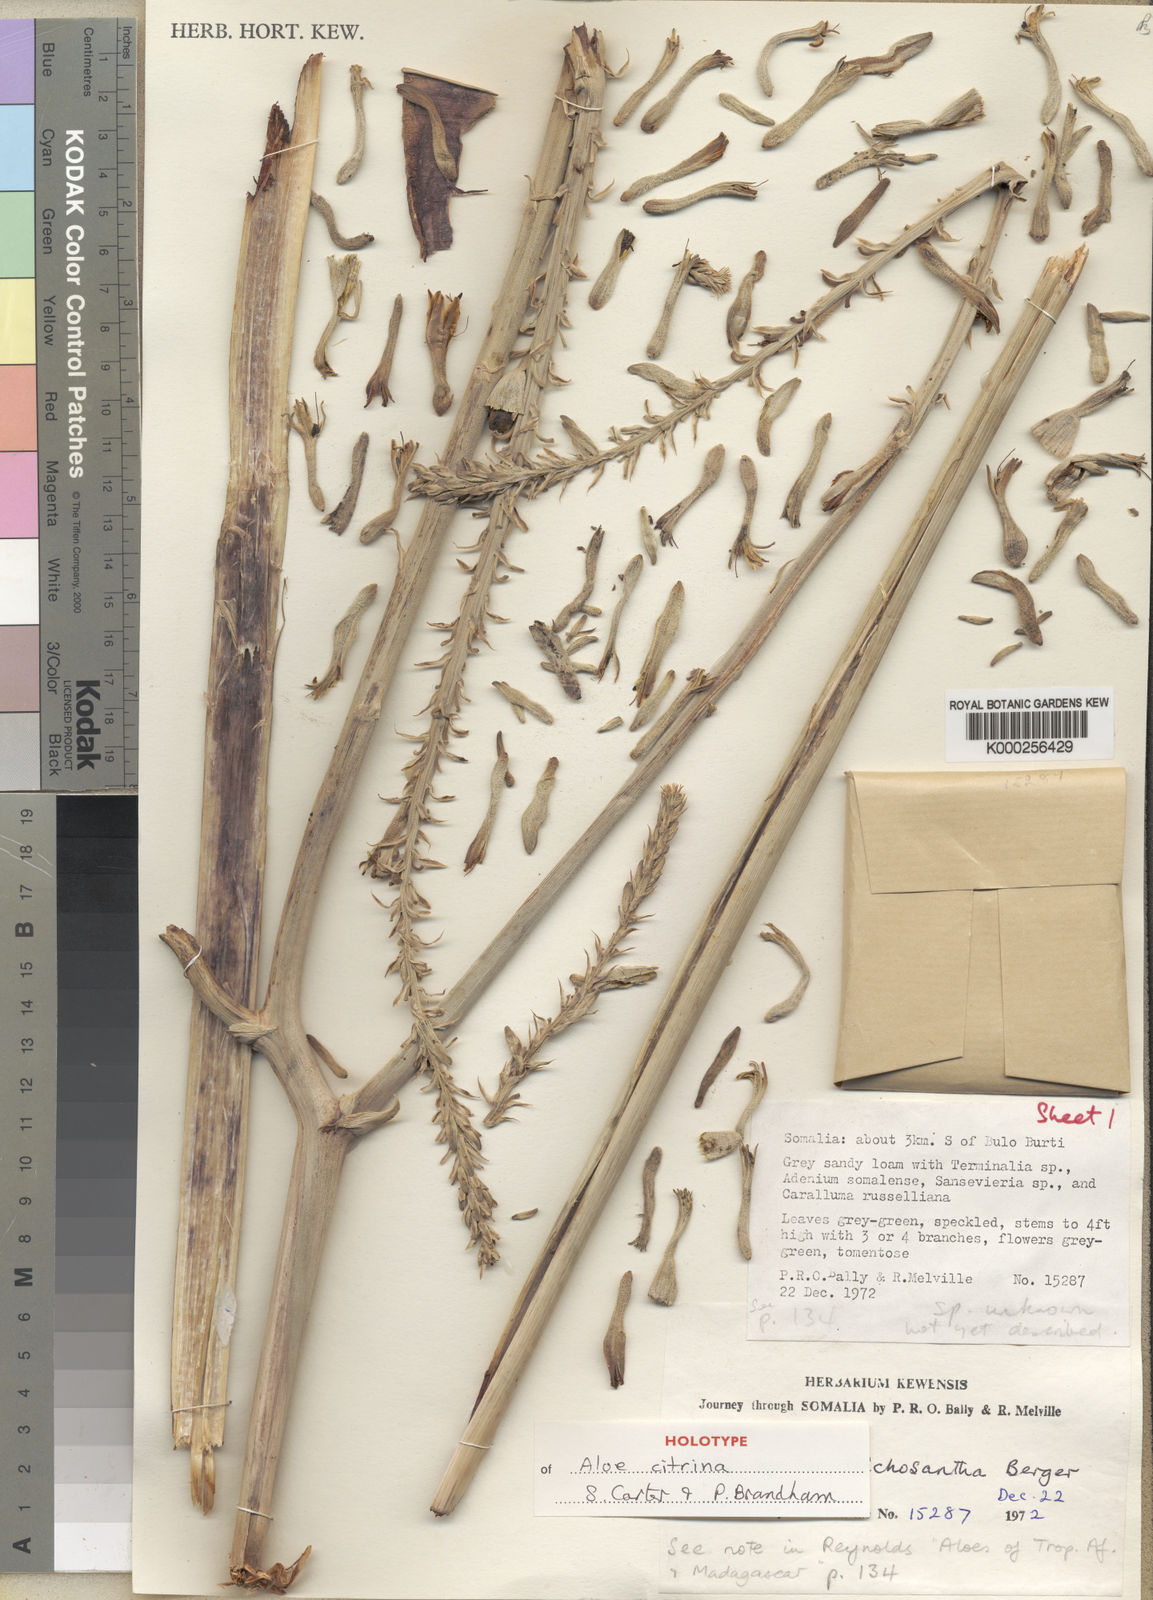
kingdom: Plantae
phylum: Tracheophyta
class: Liliopsida
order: Asparagales
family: Asphodelaceae
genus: Aloe
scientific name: Aloe citrina
